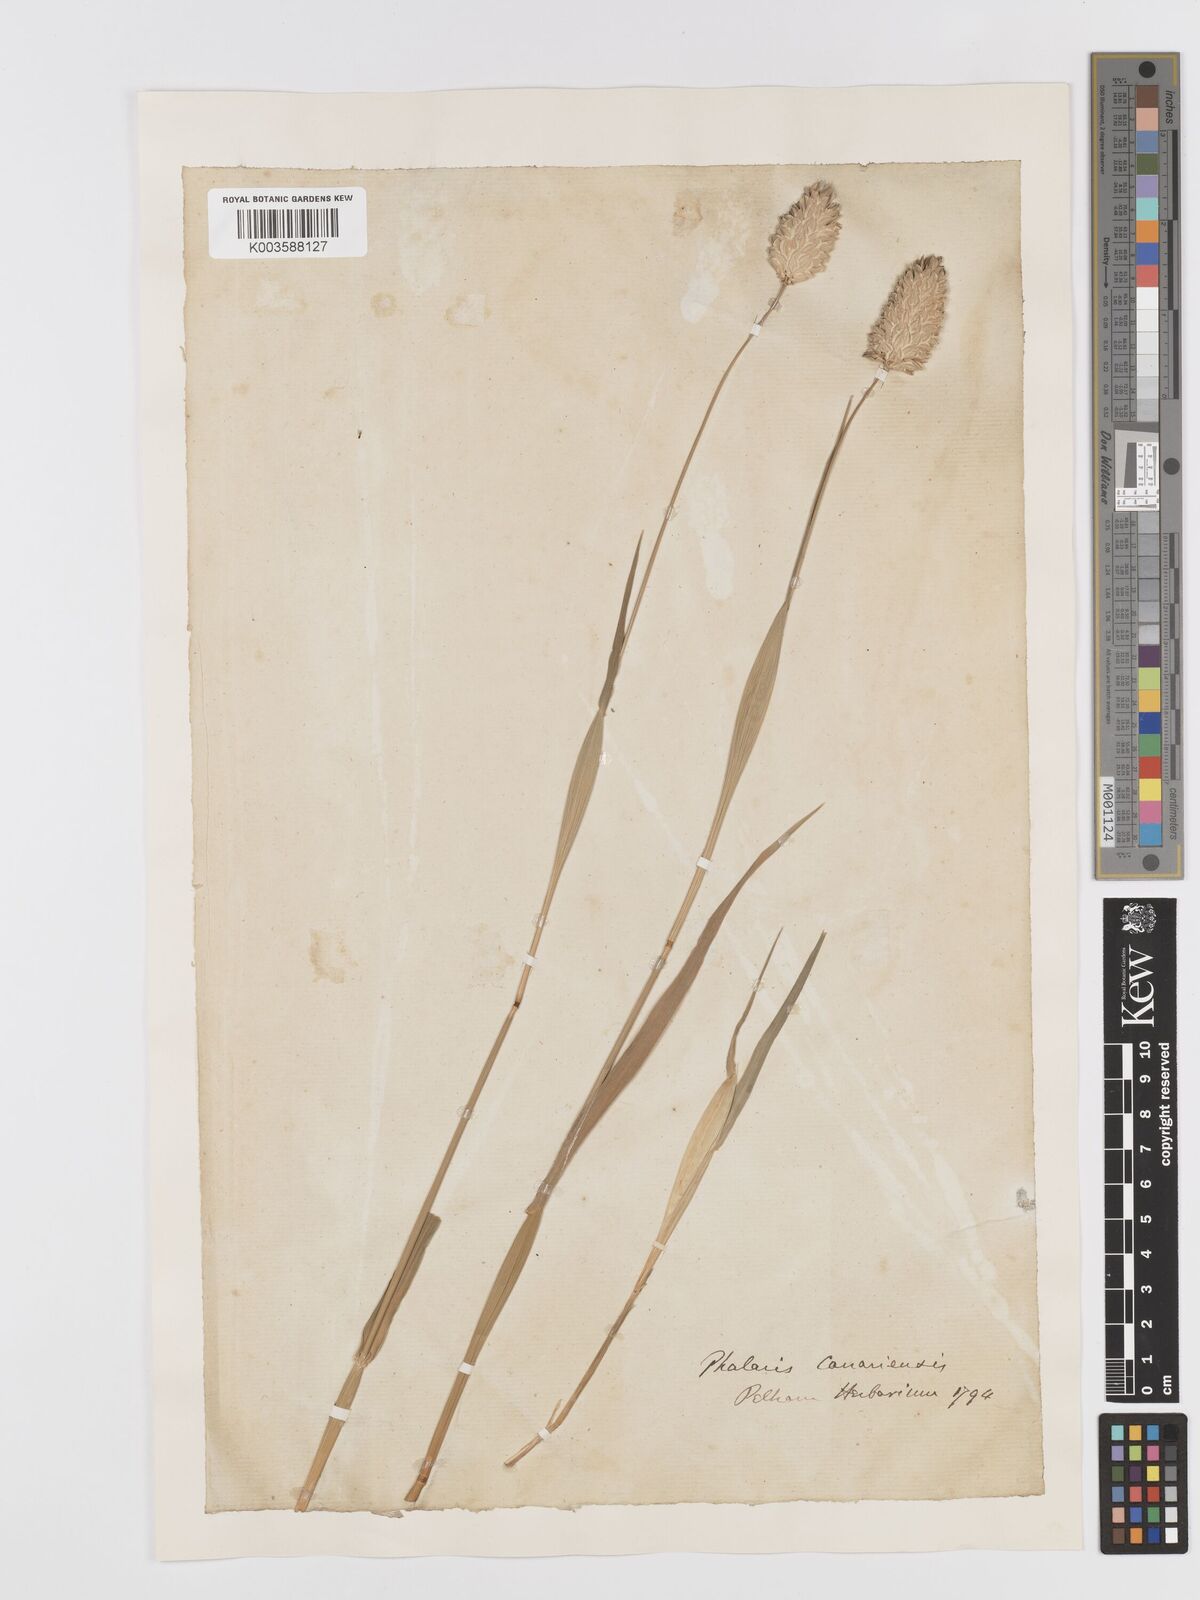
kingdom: Plantae
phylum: Tracheophyta
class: Liliopsida
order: Poales
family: Poaceae
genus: Phalaris
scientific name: Phalaris canariensis
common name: Annual canarygrass
